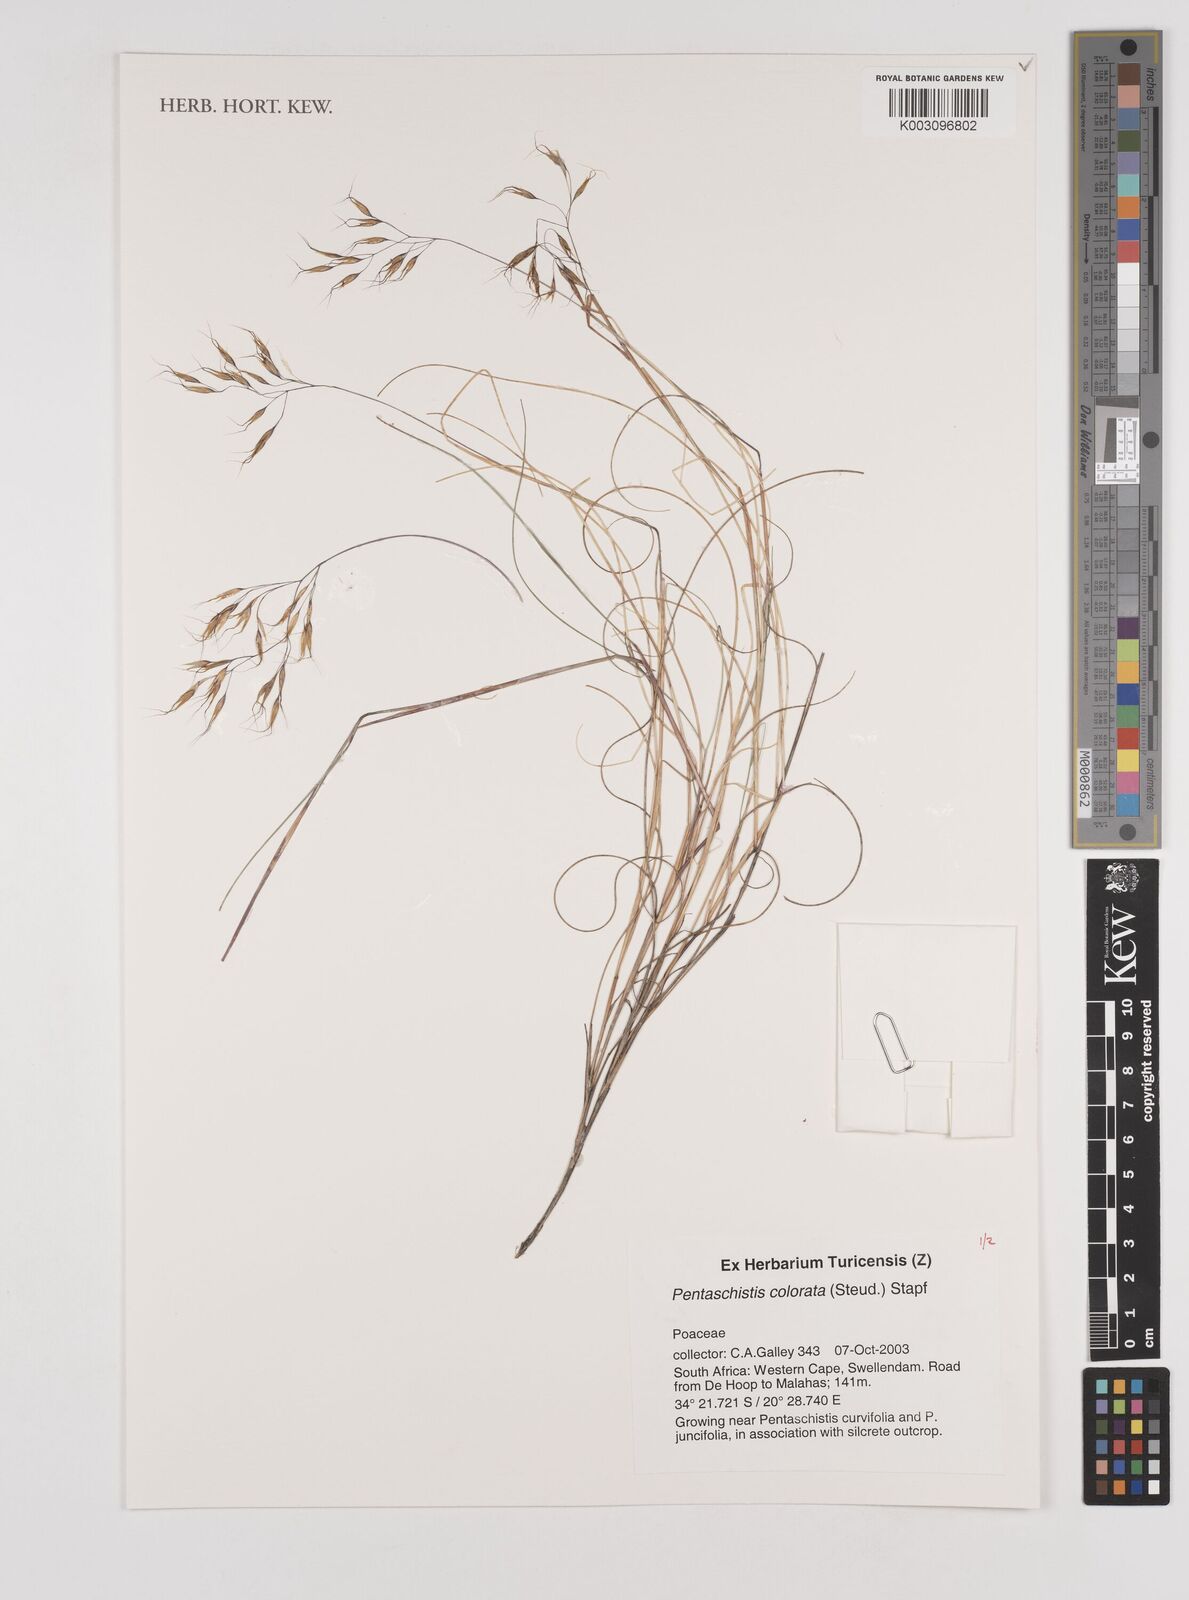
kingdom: Plantae
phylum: Tracheophyta
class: Liliopsida
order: Poales
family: Poaceae
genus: Pentameris
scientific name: Pentameris colorata
